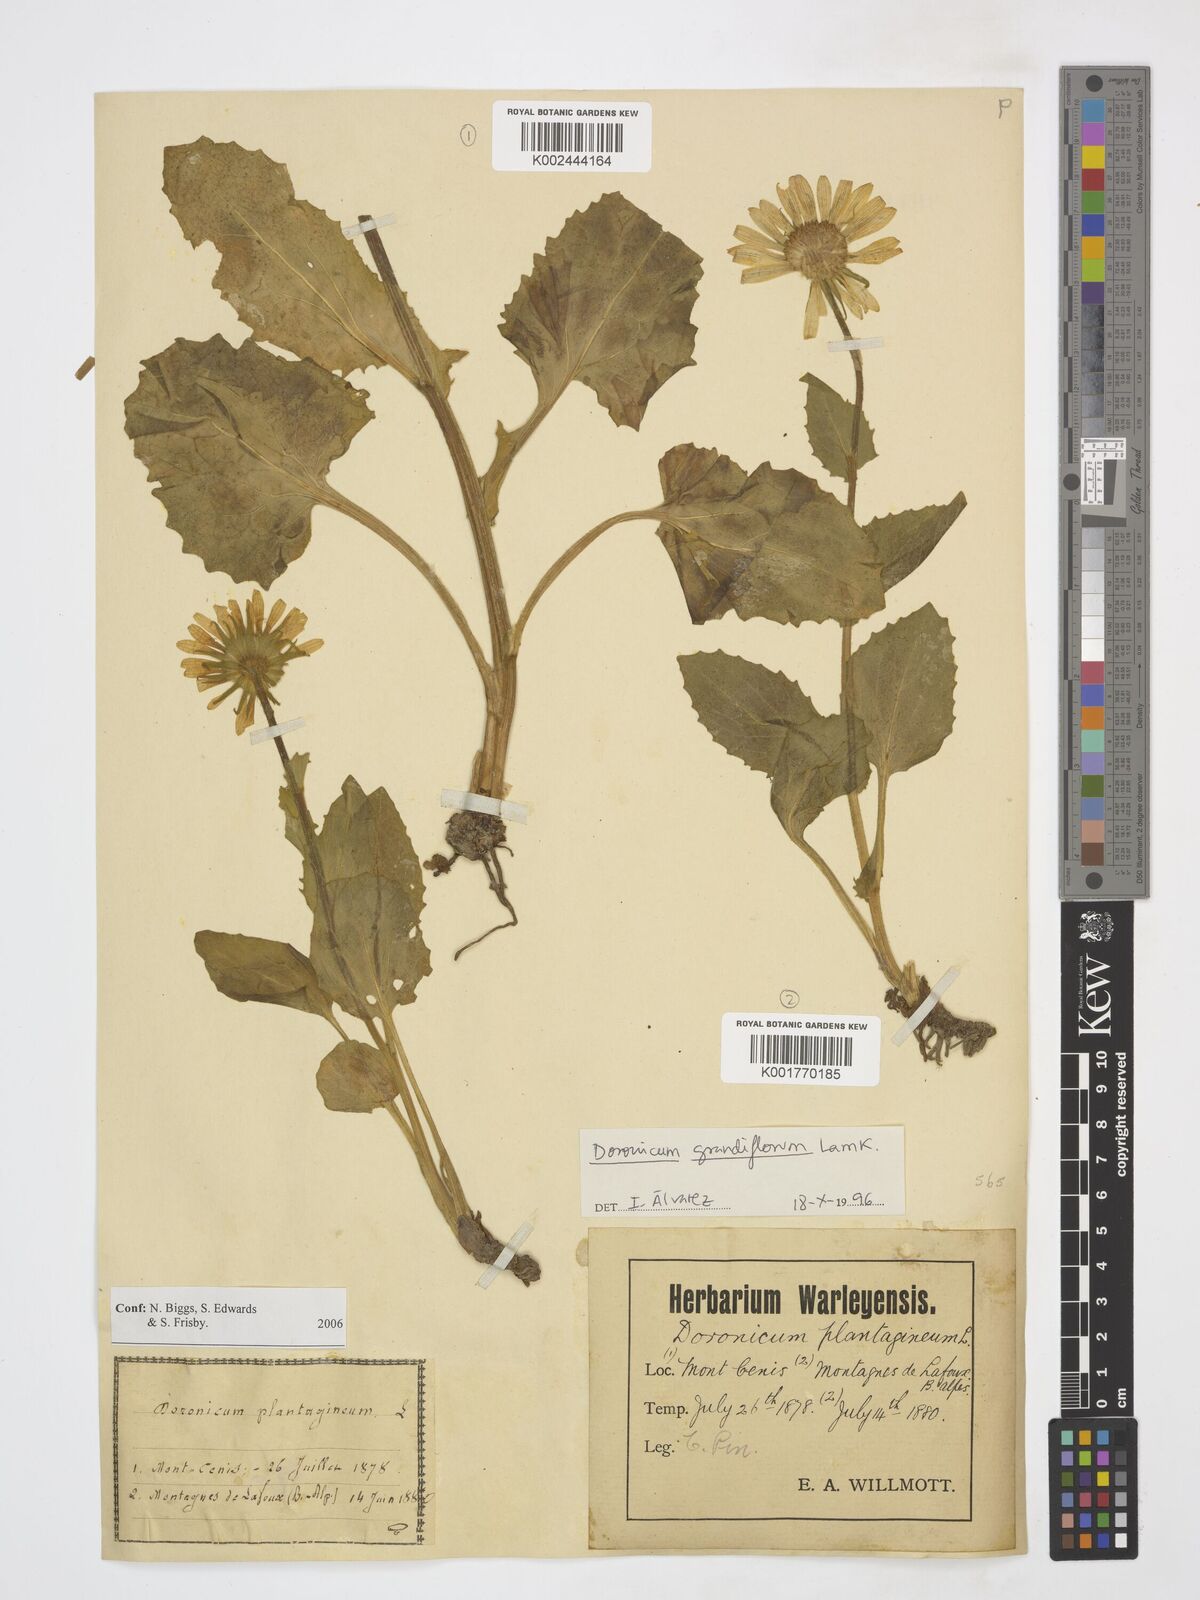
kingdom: Plantae
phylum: Tracheophyta
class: Magnoliopsida
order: Asterales
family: Asteraceae
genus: Doronicum
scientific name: Doronicum grandiflorum
